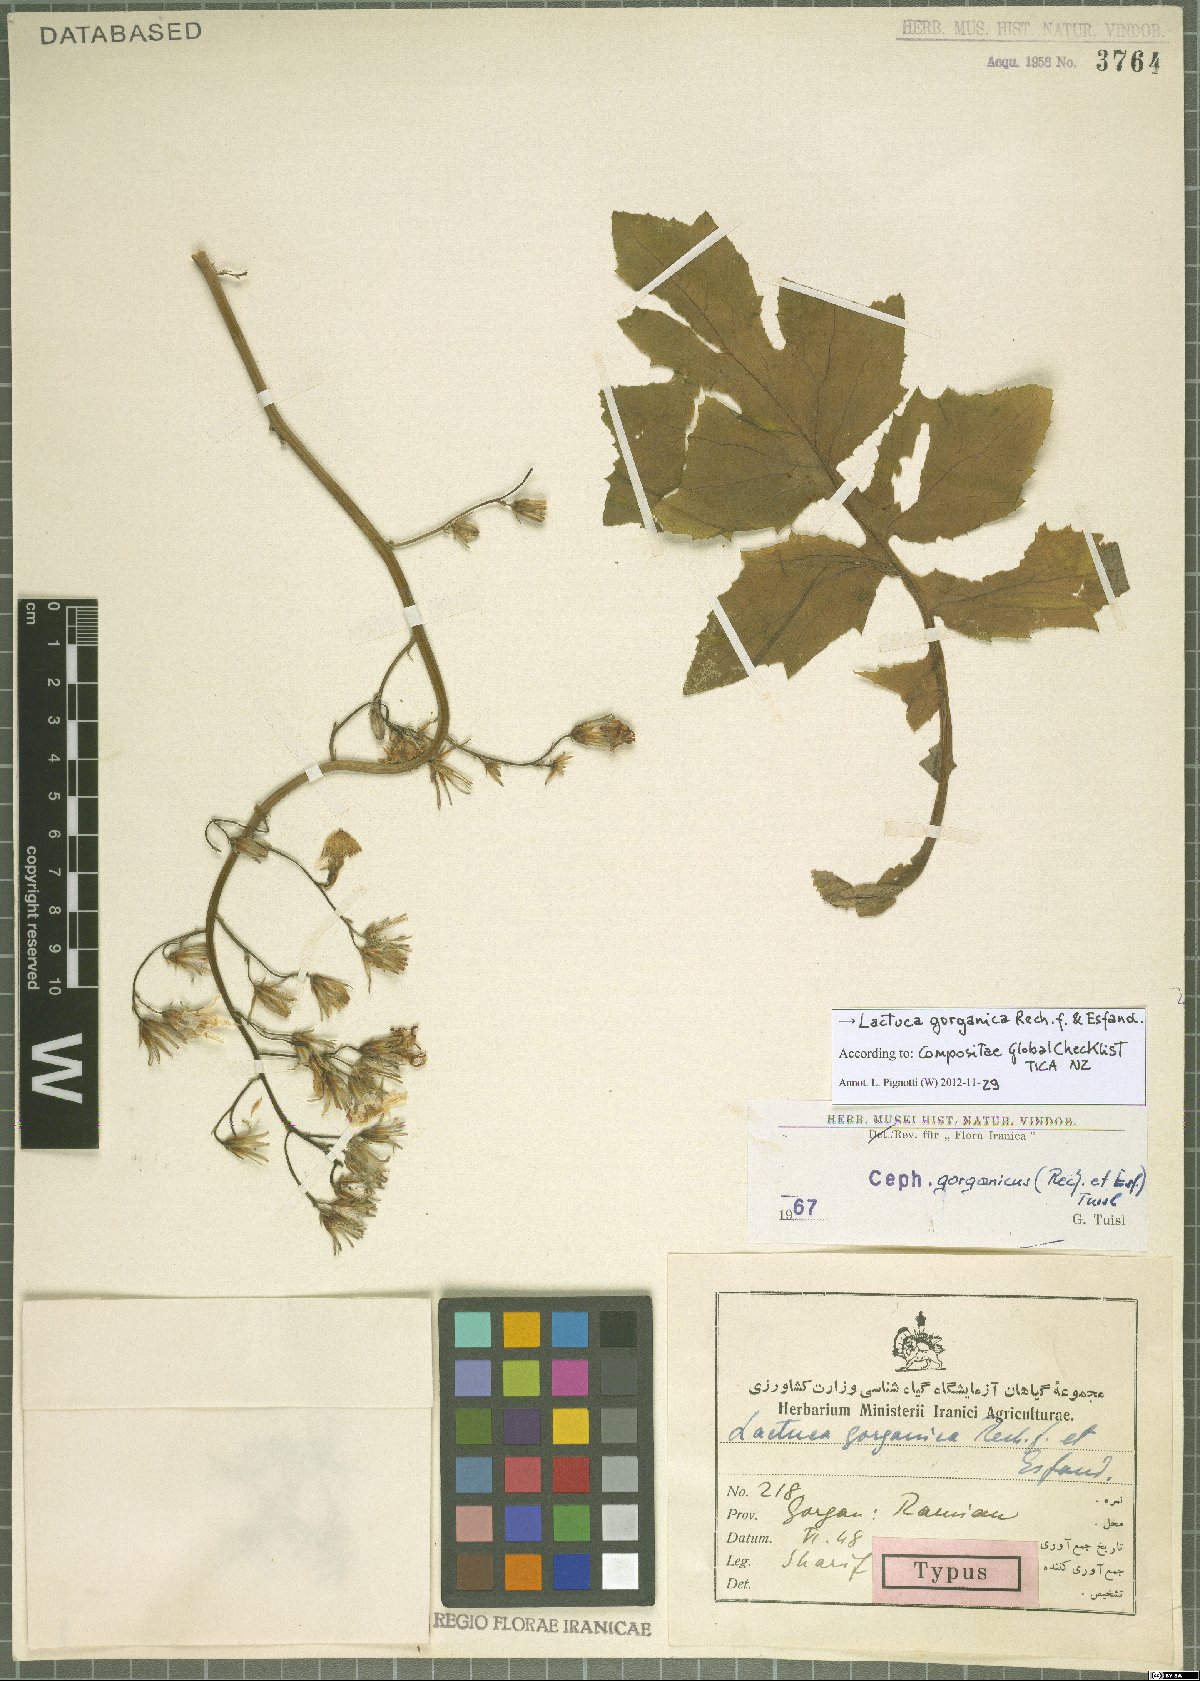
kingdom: Plantae
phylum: Tracheophyta
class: Magnoliopsida
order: Asterales
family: Asteraceae
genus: Lactuca
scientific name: Lactuca gorganica
